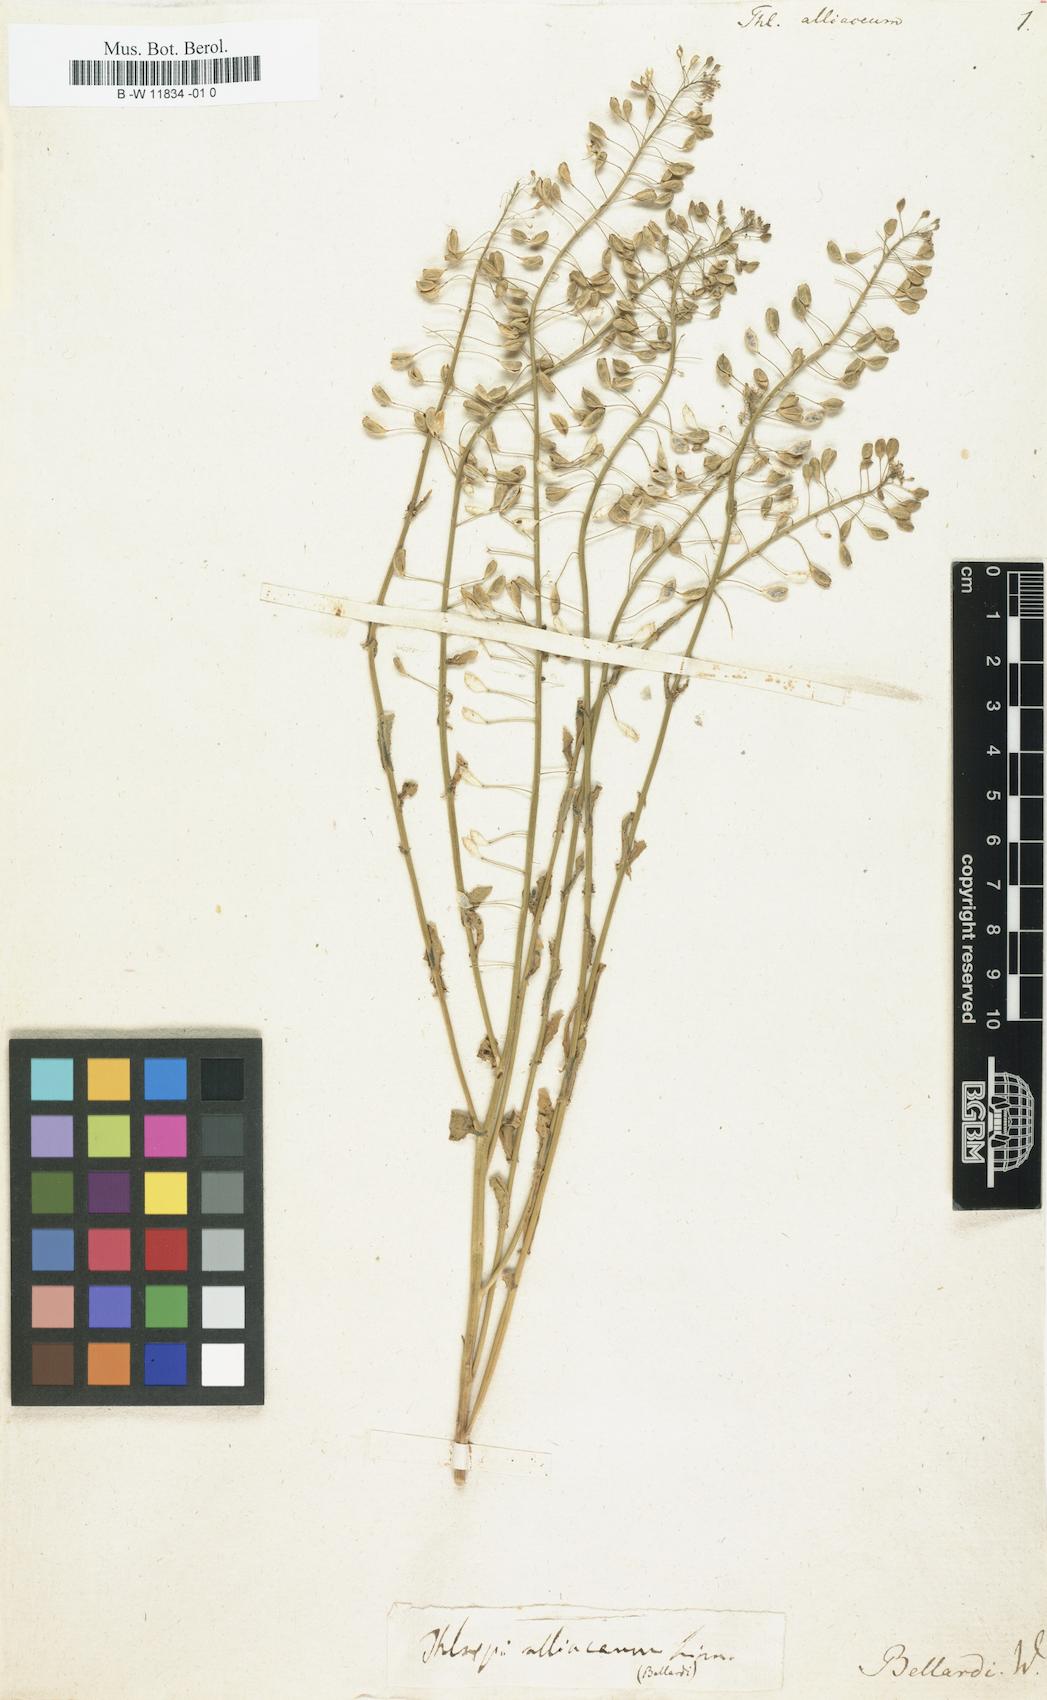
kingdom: Plantae
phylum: Tracheophyta
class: Magnoliopsida
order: Brassicales
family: Brassicaceae
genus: Mummenhoffia
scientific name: Mummenhoffia alliacea
